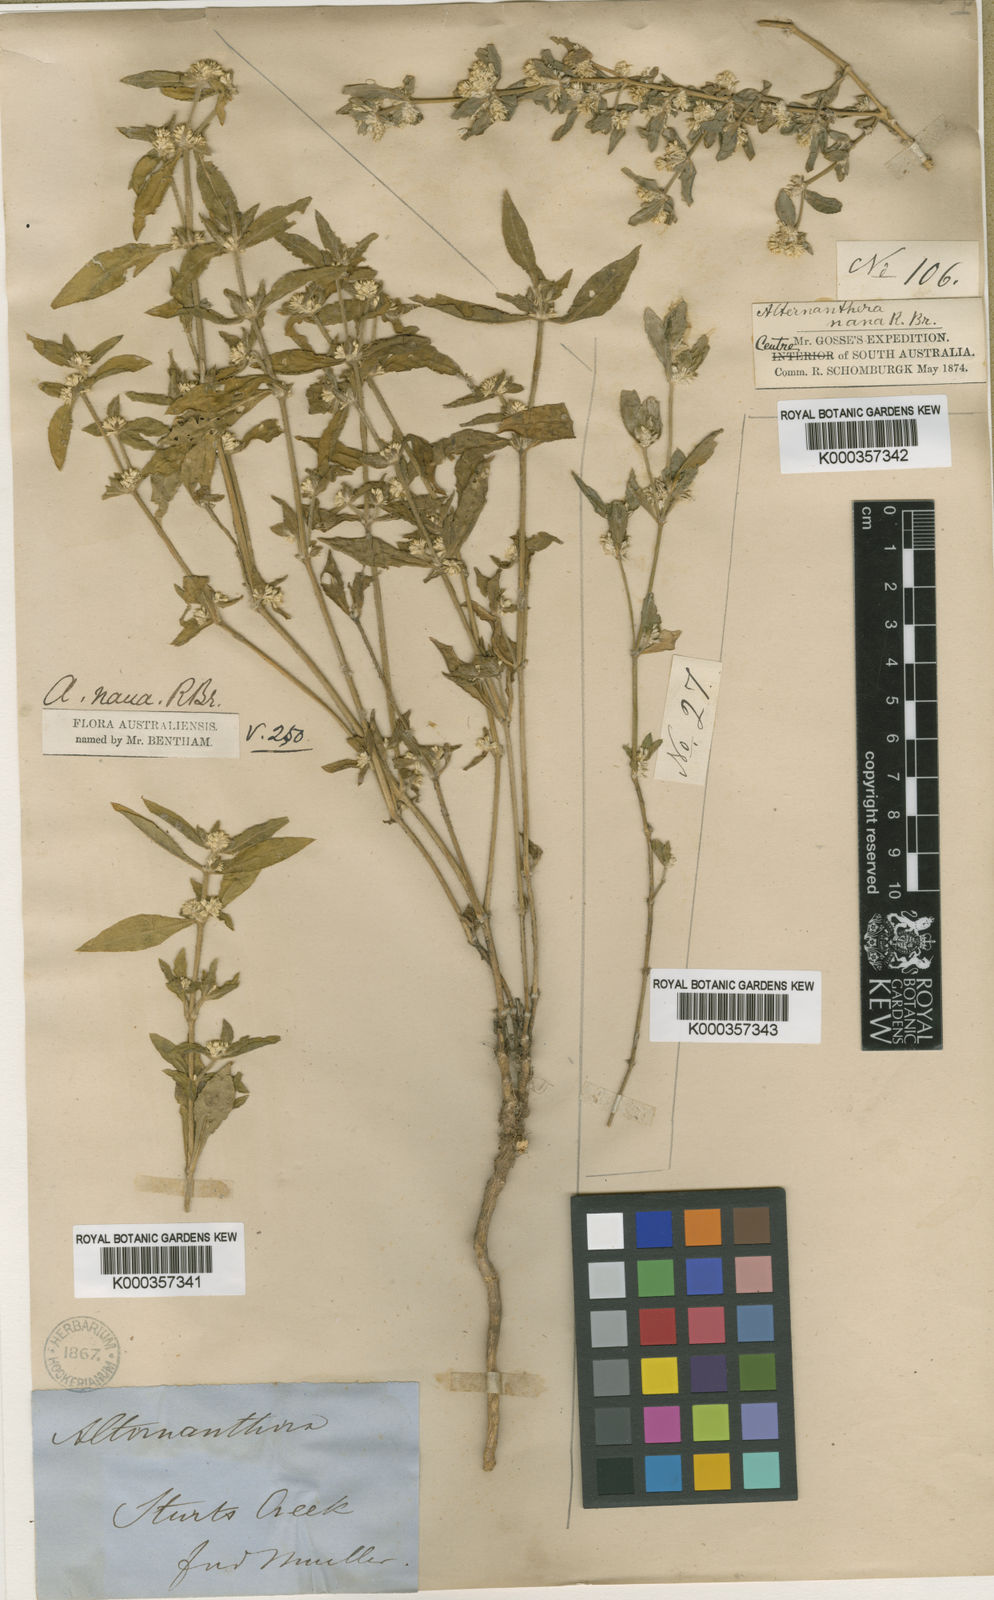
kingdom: Plantae
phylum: Tracheophyta
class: Magnoliopsida
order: Caryophyllales
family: Amaranthaceae
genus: Alternanthera
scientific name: Alternanthera nana
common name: Hairy joyweed
